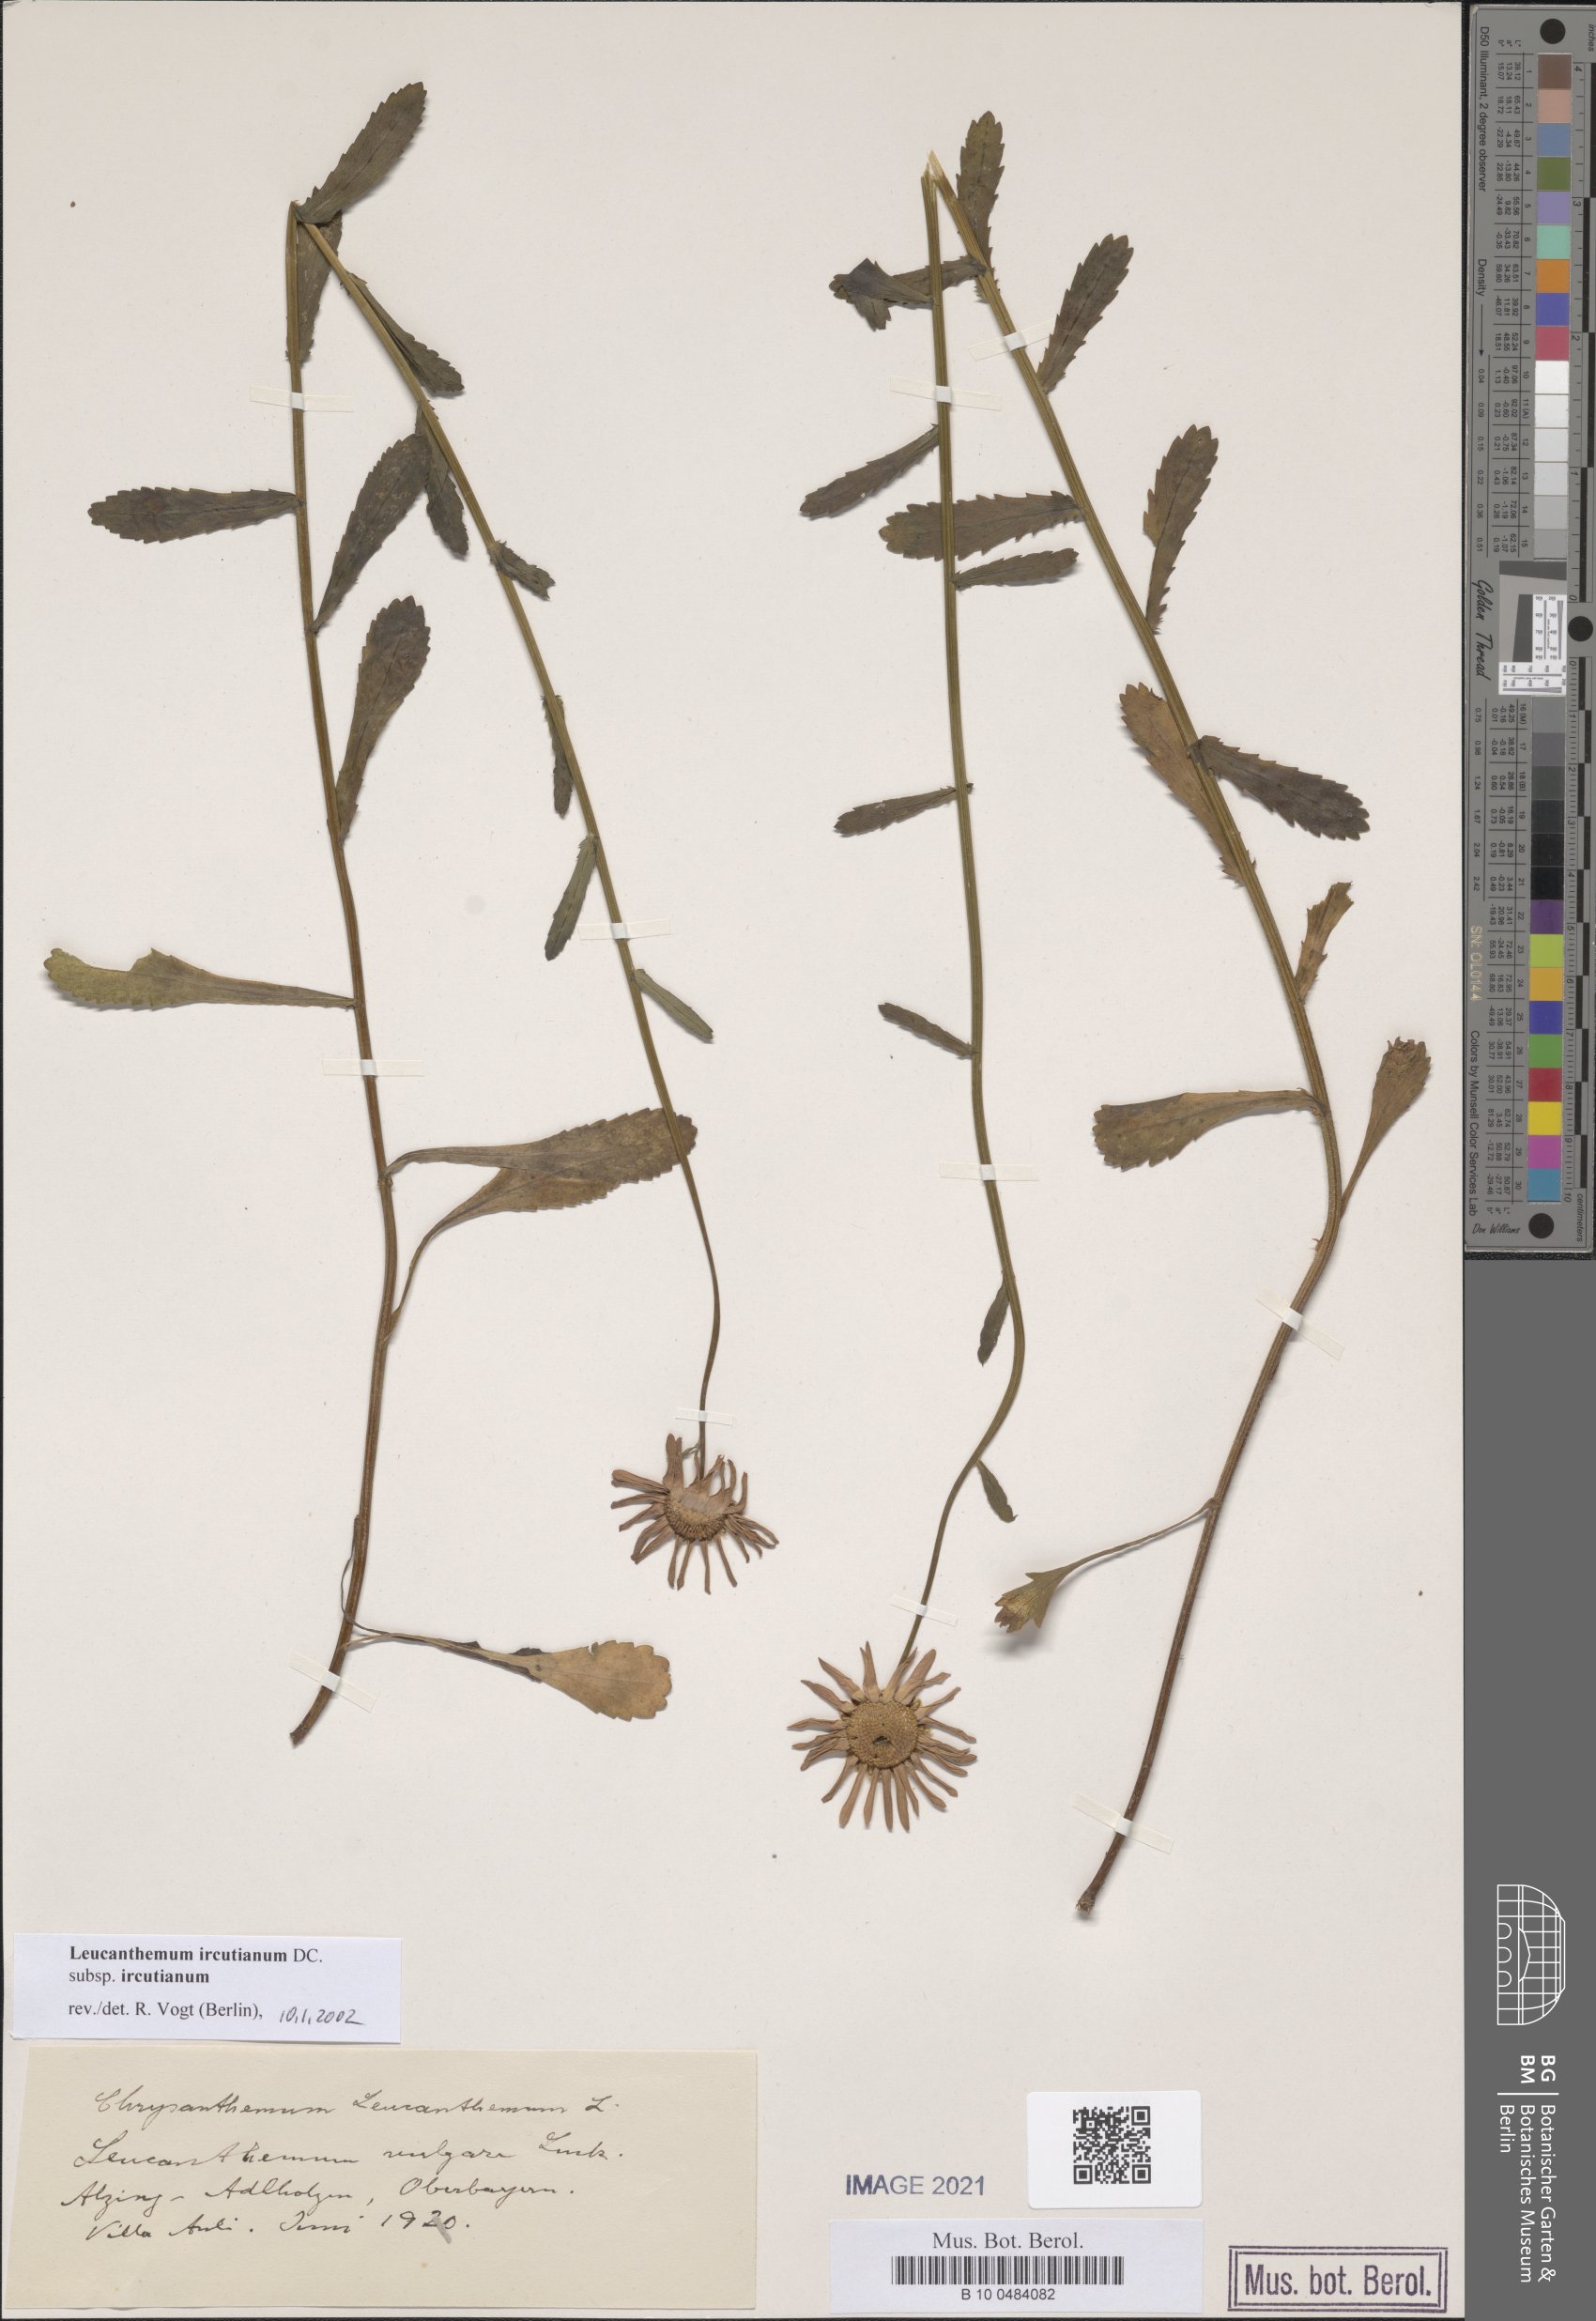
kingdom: Plantae
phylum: Tracheophyta
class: Magnoliopsida
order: Asterales
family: Asteraceae
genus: Leucanthemum
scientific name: Leucanthemum ircutianum
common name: Daisy
